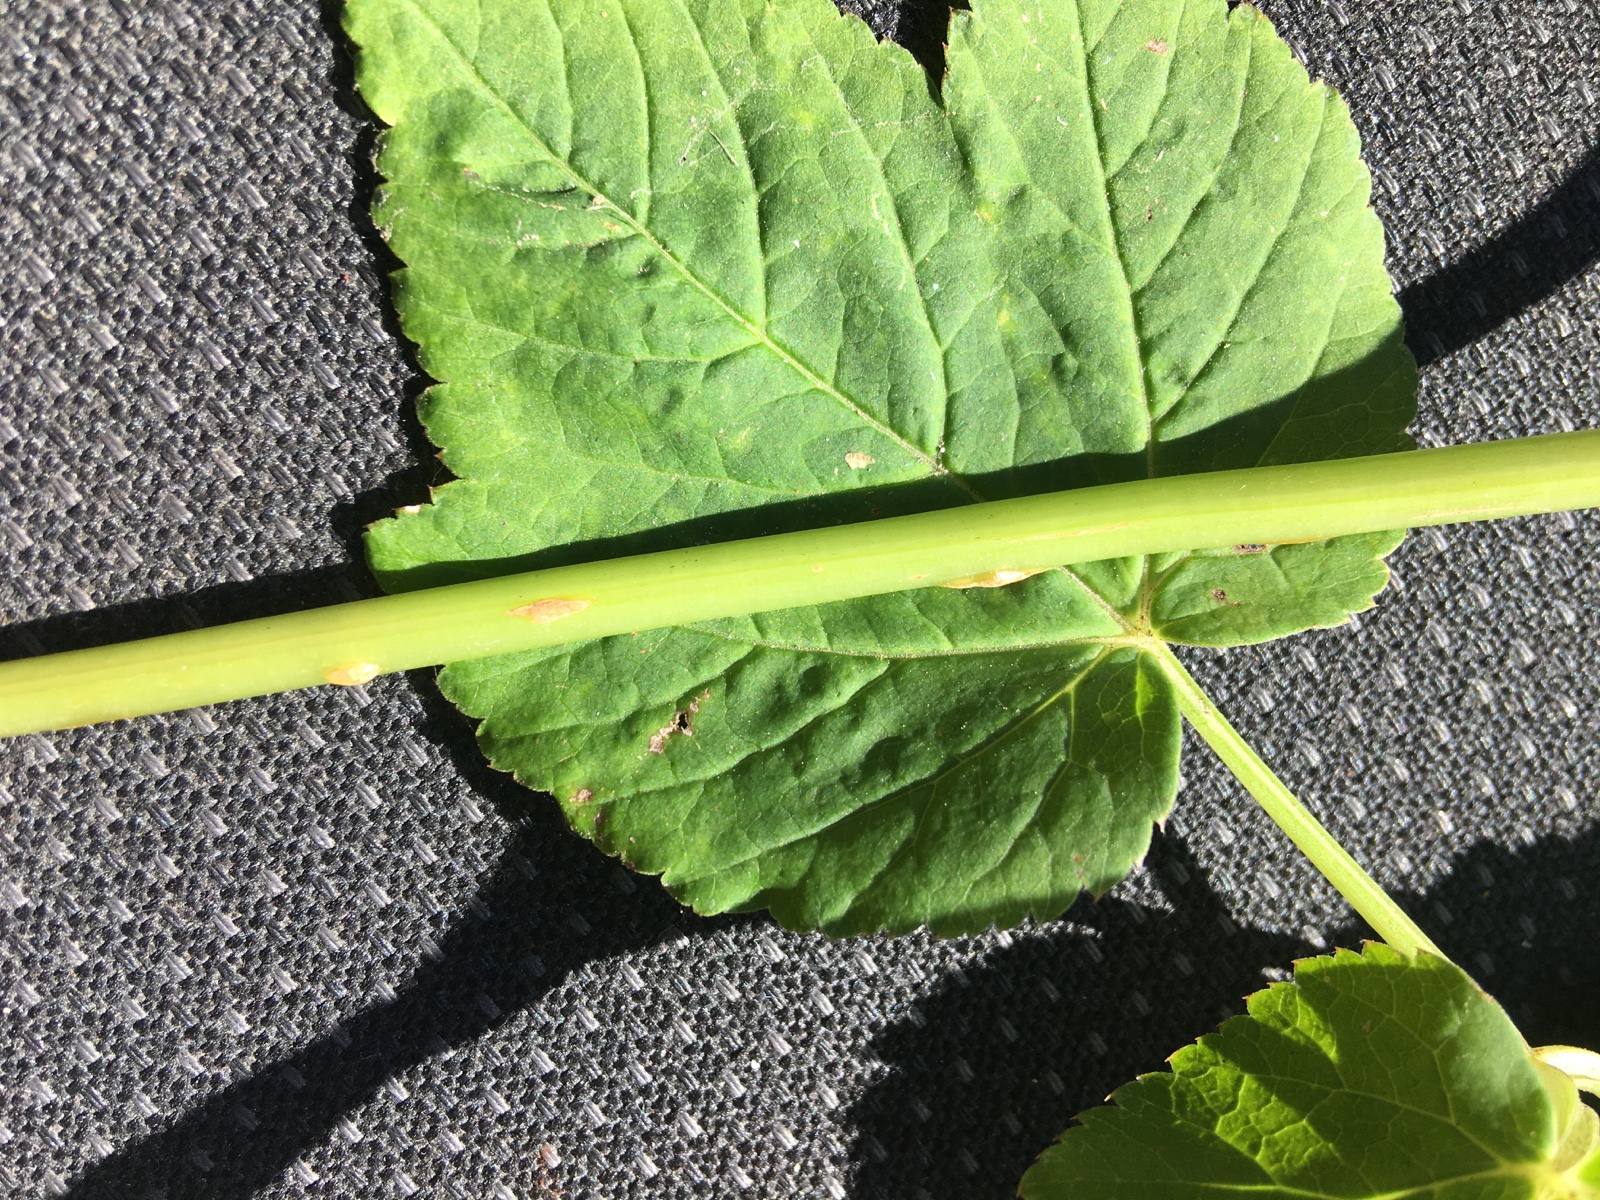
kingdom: Fungi
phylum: Ascomycota
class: Taphrinomycetes
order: Taphrinales
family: Taphrinaceae
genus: Protomyces
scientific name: Protomyces macrosporus
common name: skvalderkål-vablesæk
